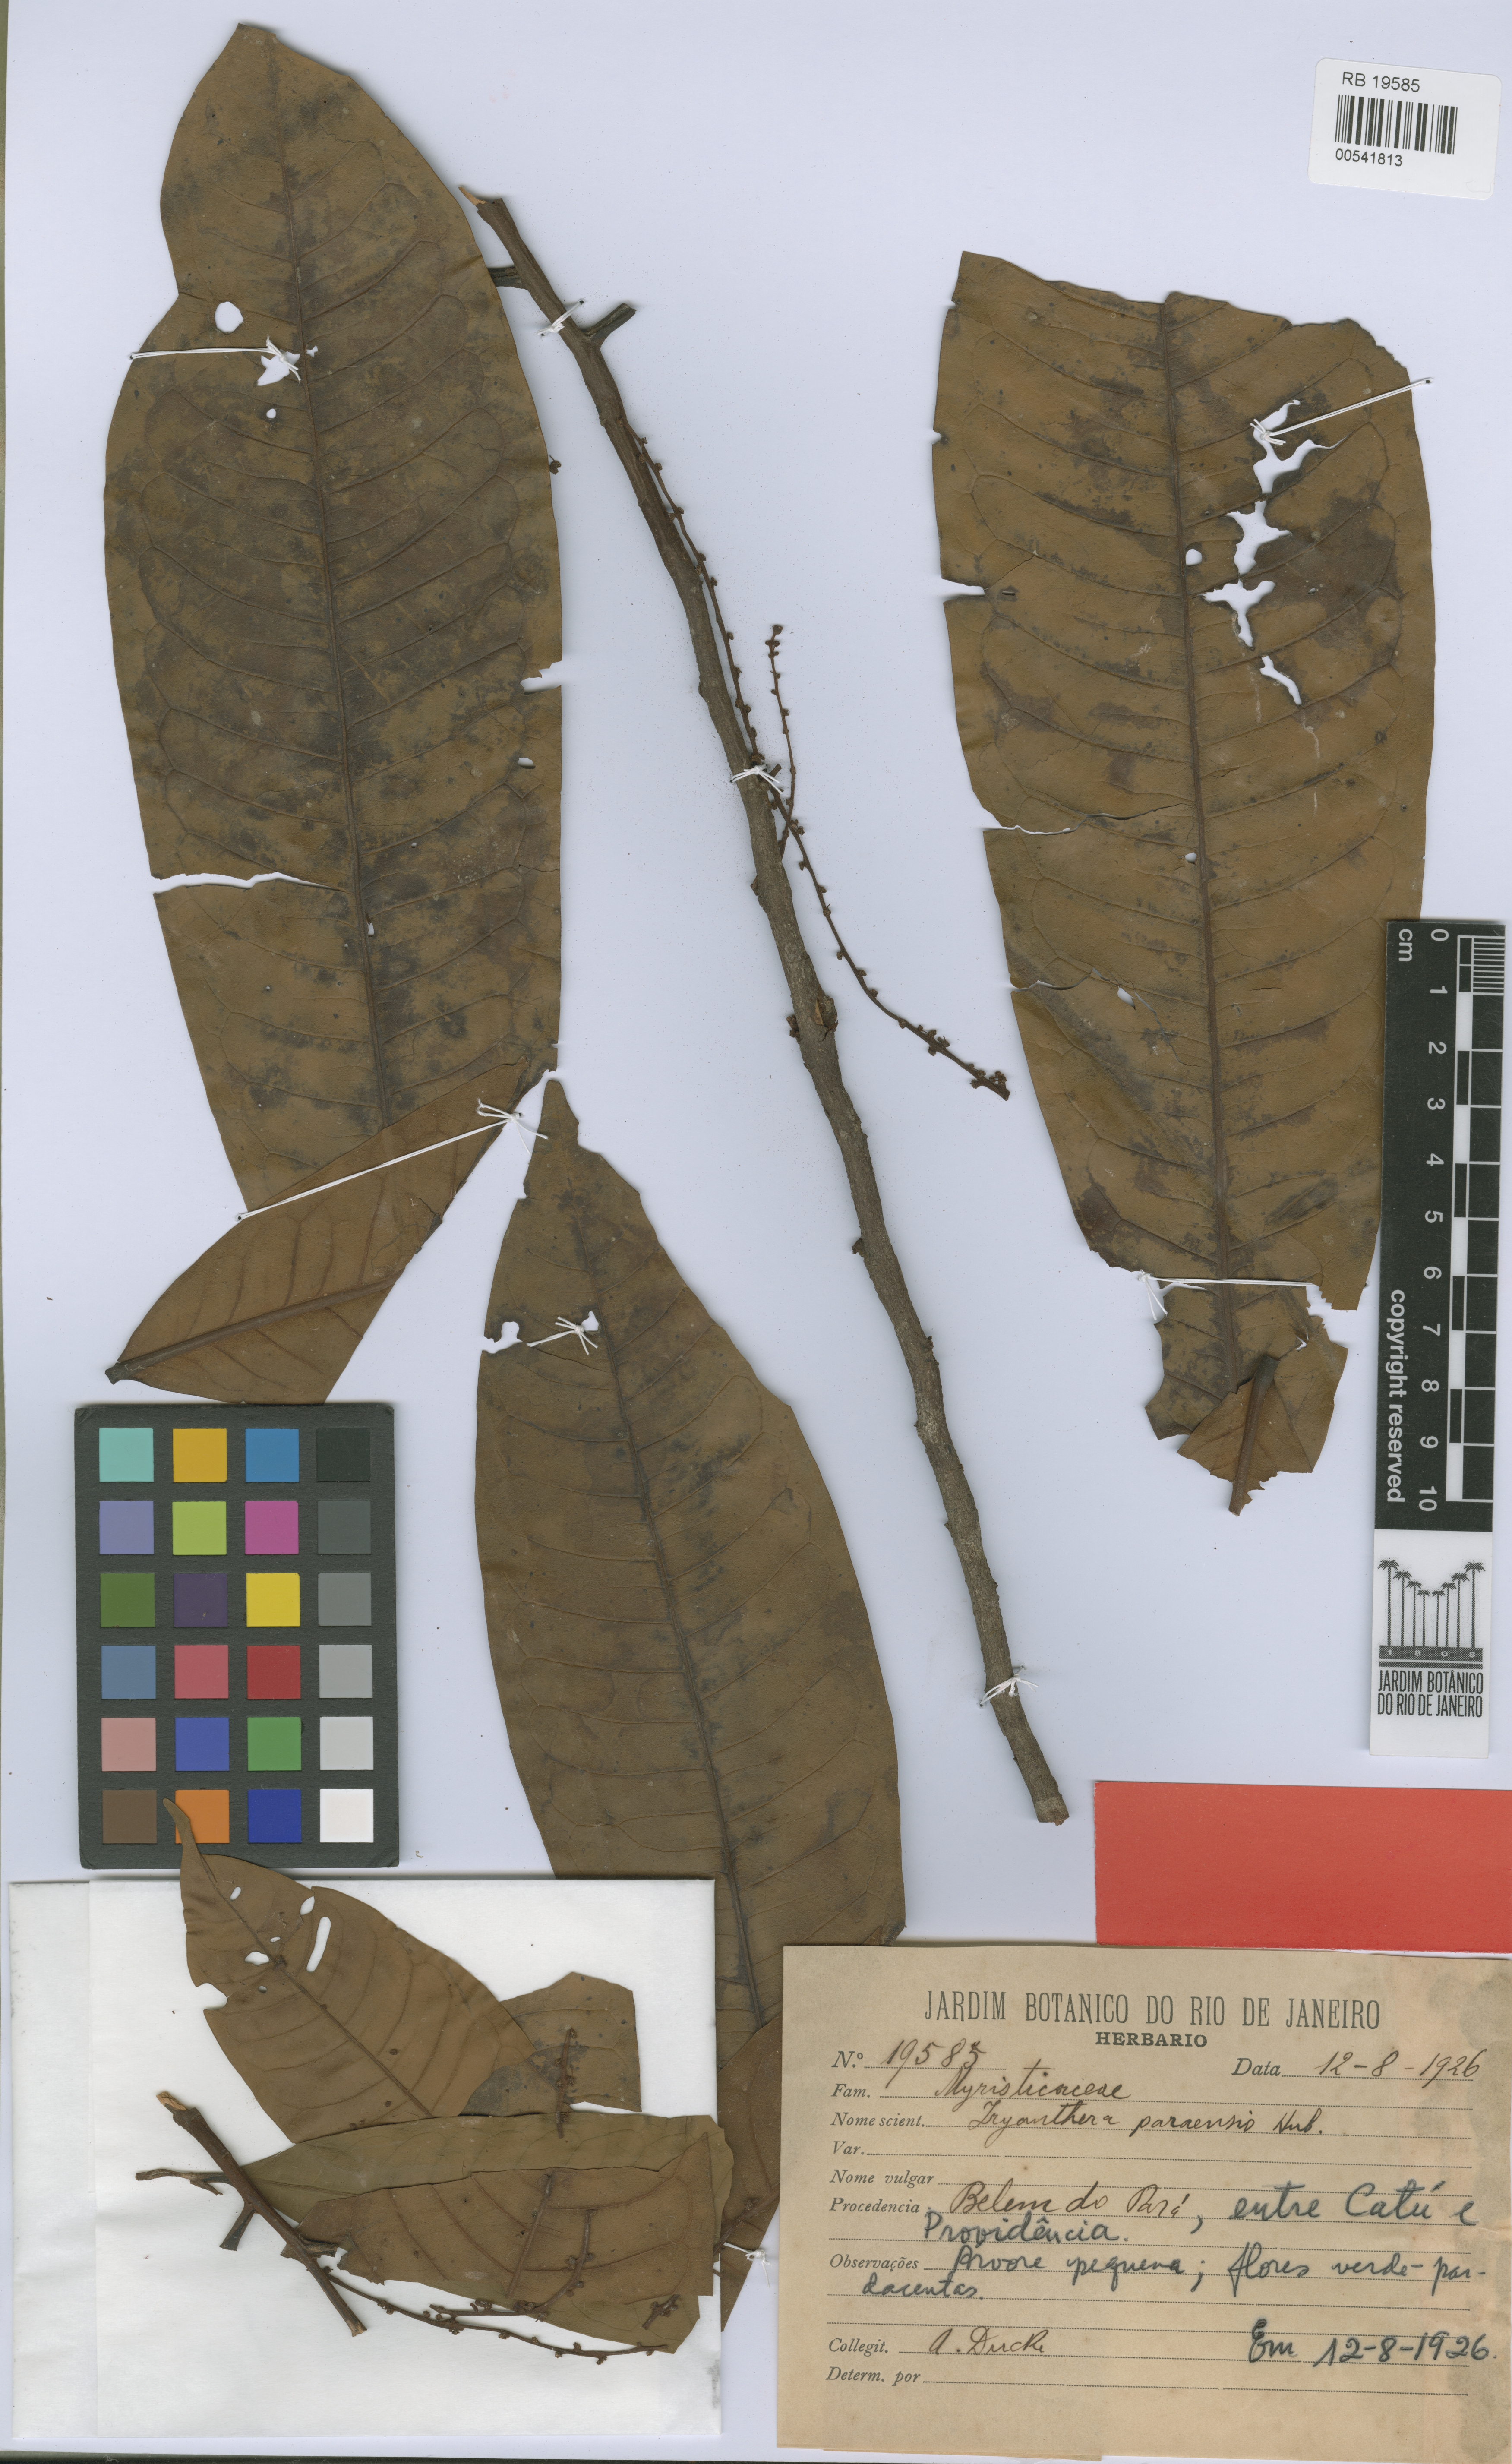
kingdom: Plantae
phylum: Tracheophyta
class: Magnoliopsida
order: Magnoliales
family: Myristicaceae
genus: Iryanthera
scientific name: Iryanthera paraensis
